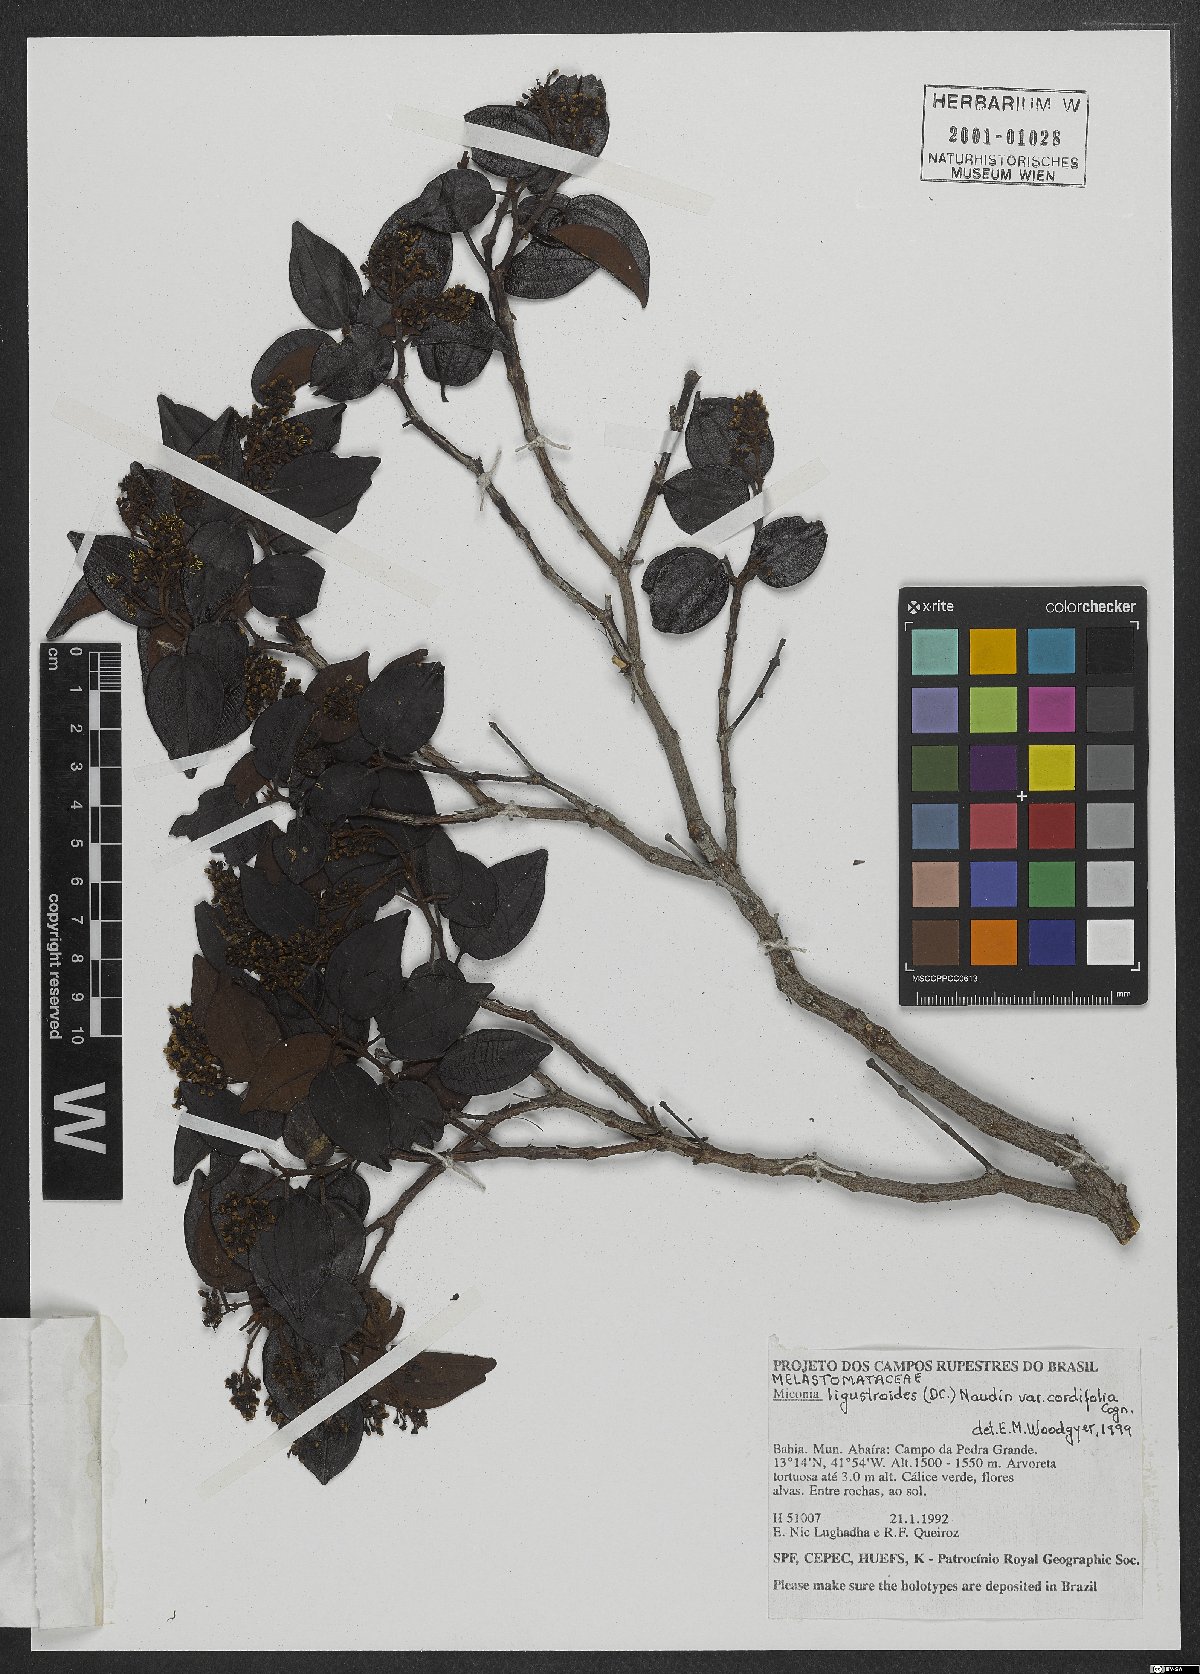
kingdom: Plantae
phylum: Tracheophyta
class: Magnoliopsida
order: Myrtales
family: Melastomataceae
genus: Miconia
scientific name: Miconia ligustroides
